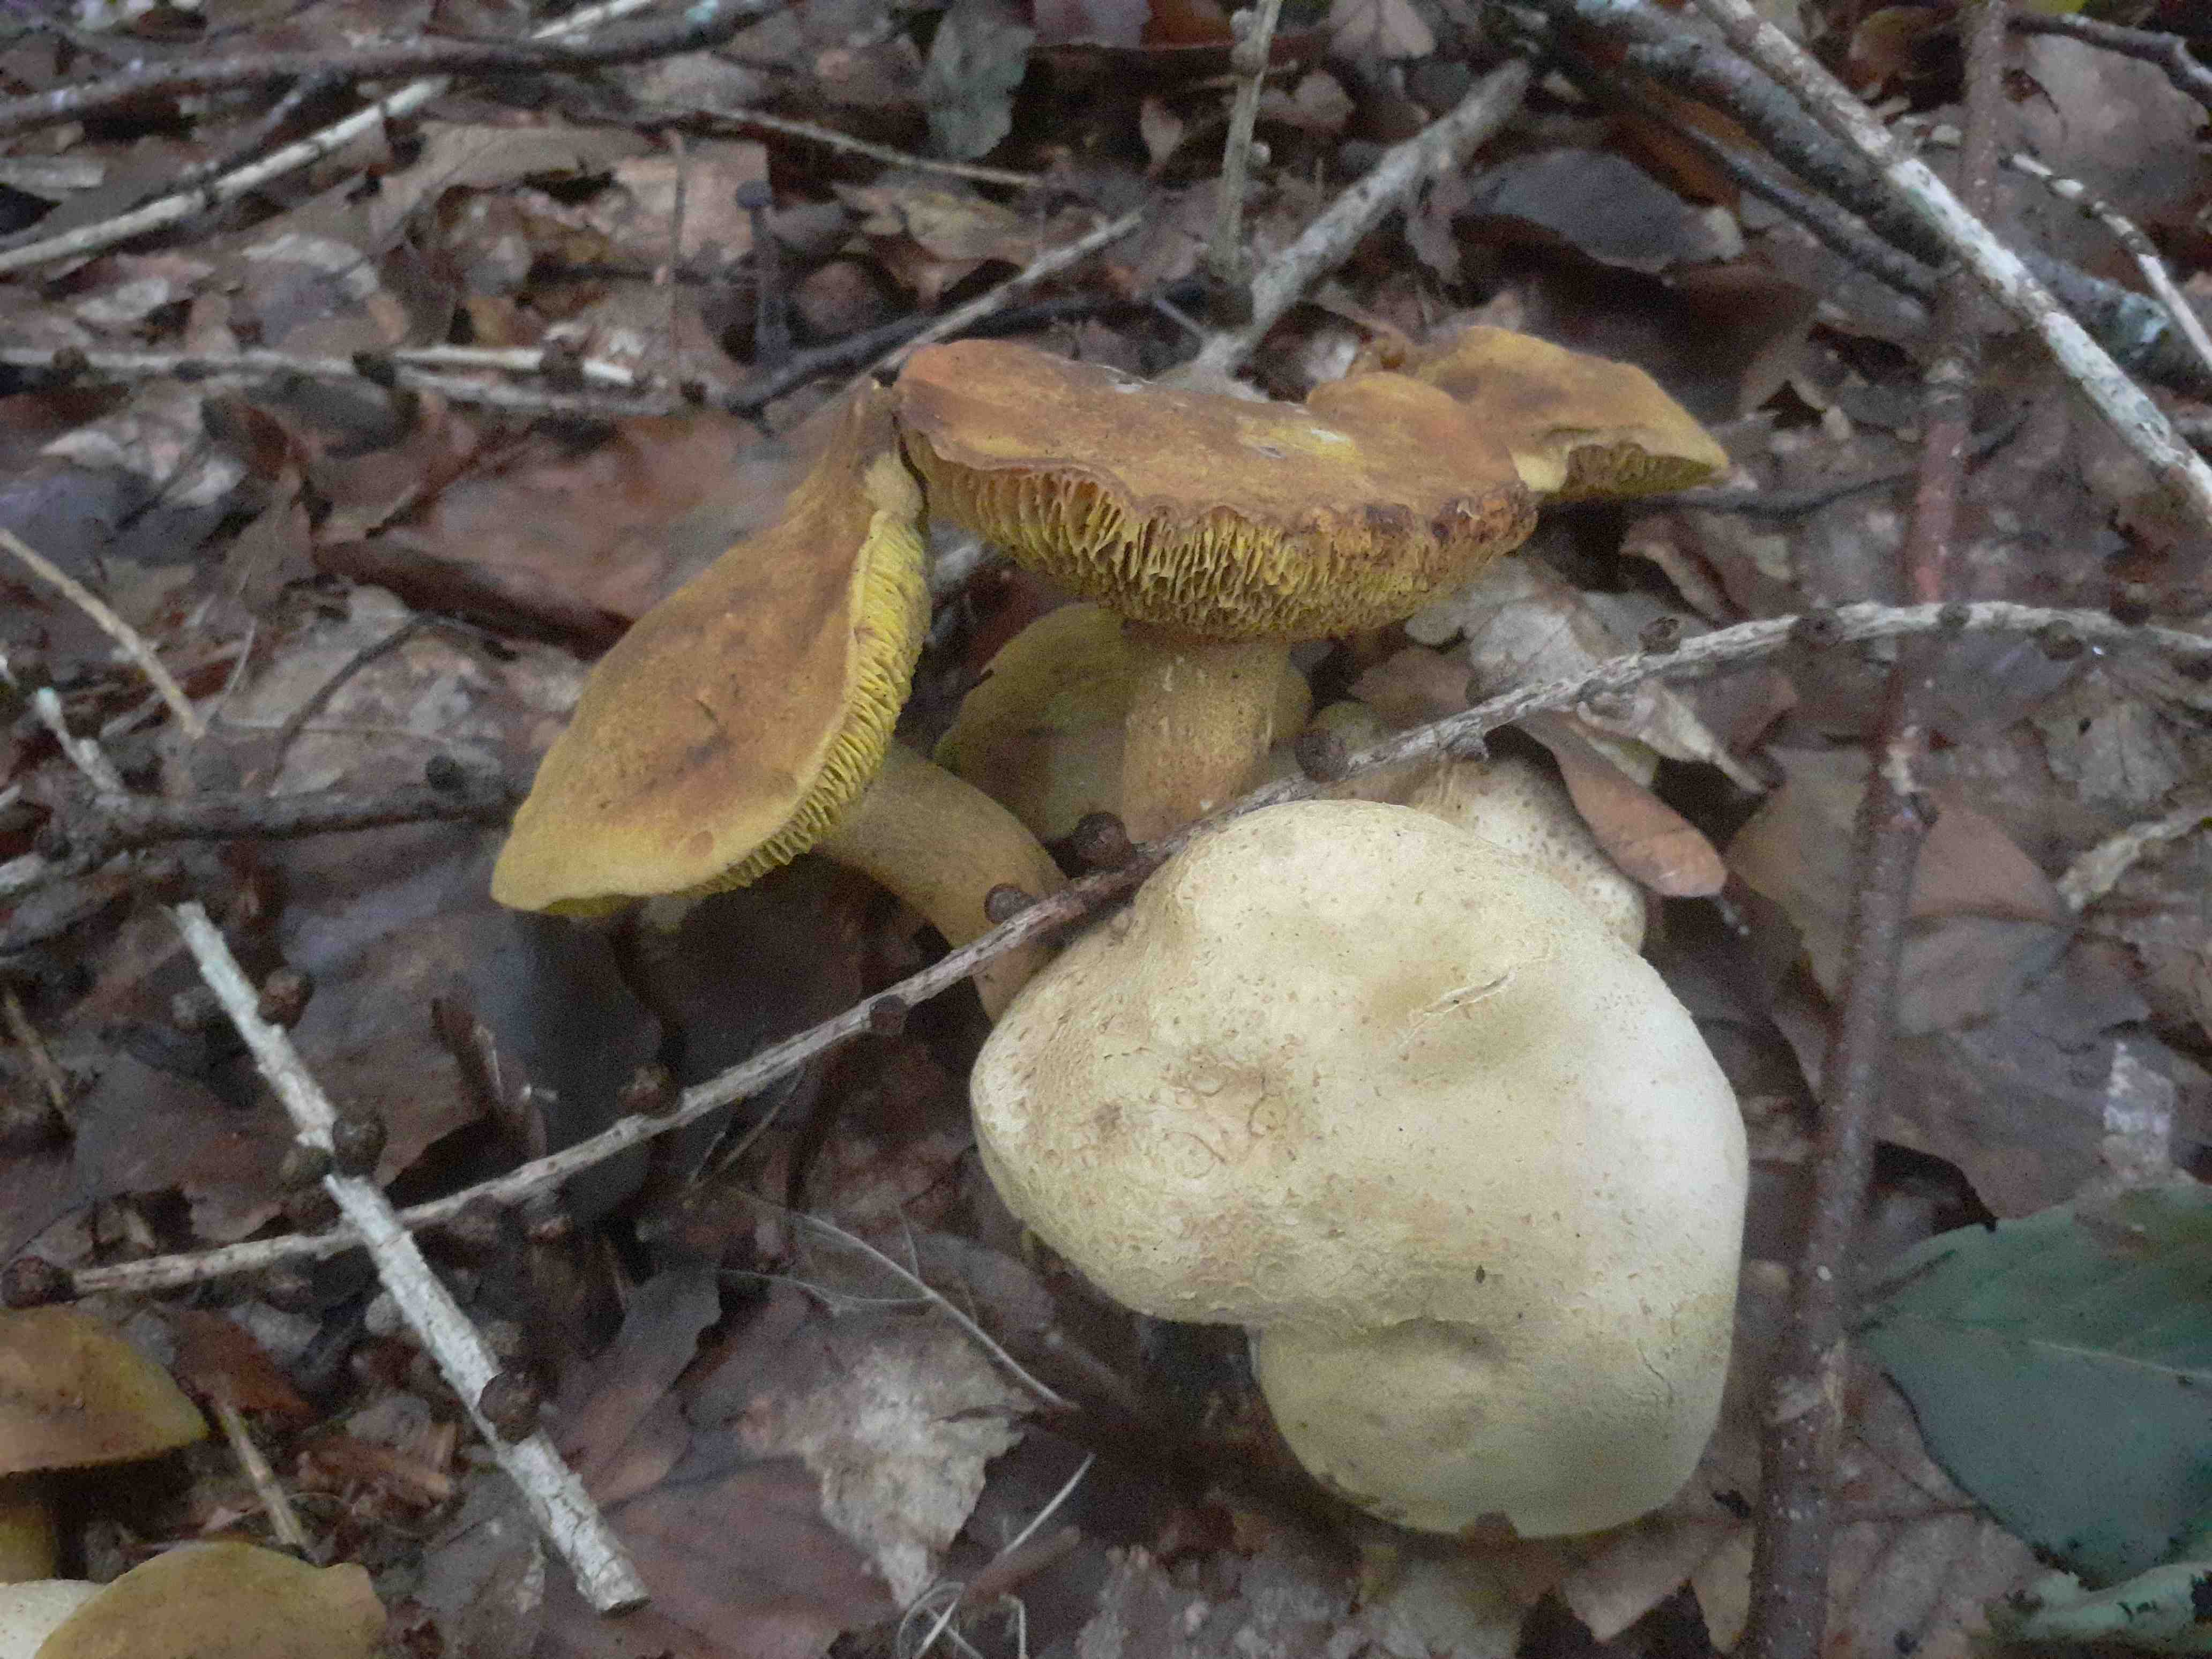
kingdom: Fungi
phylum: Basidiomycota
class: Agaricomycetes
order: Boletales
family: Boletaceae
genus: Pseudoboletus
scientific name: Pseudoboletus parasiticus
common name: snyltende rørhat
